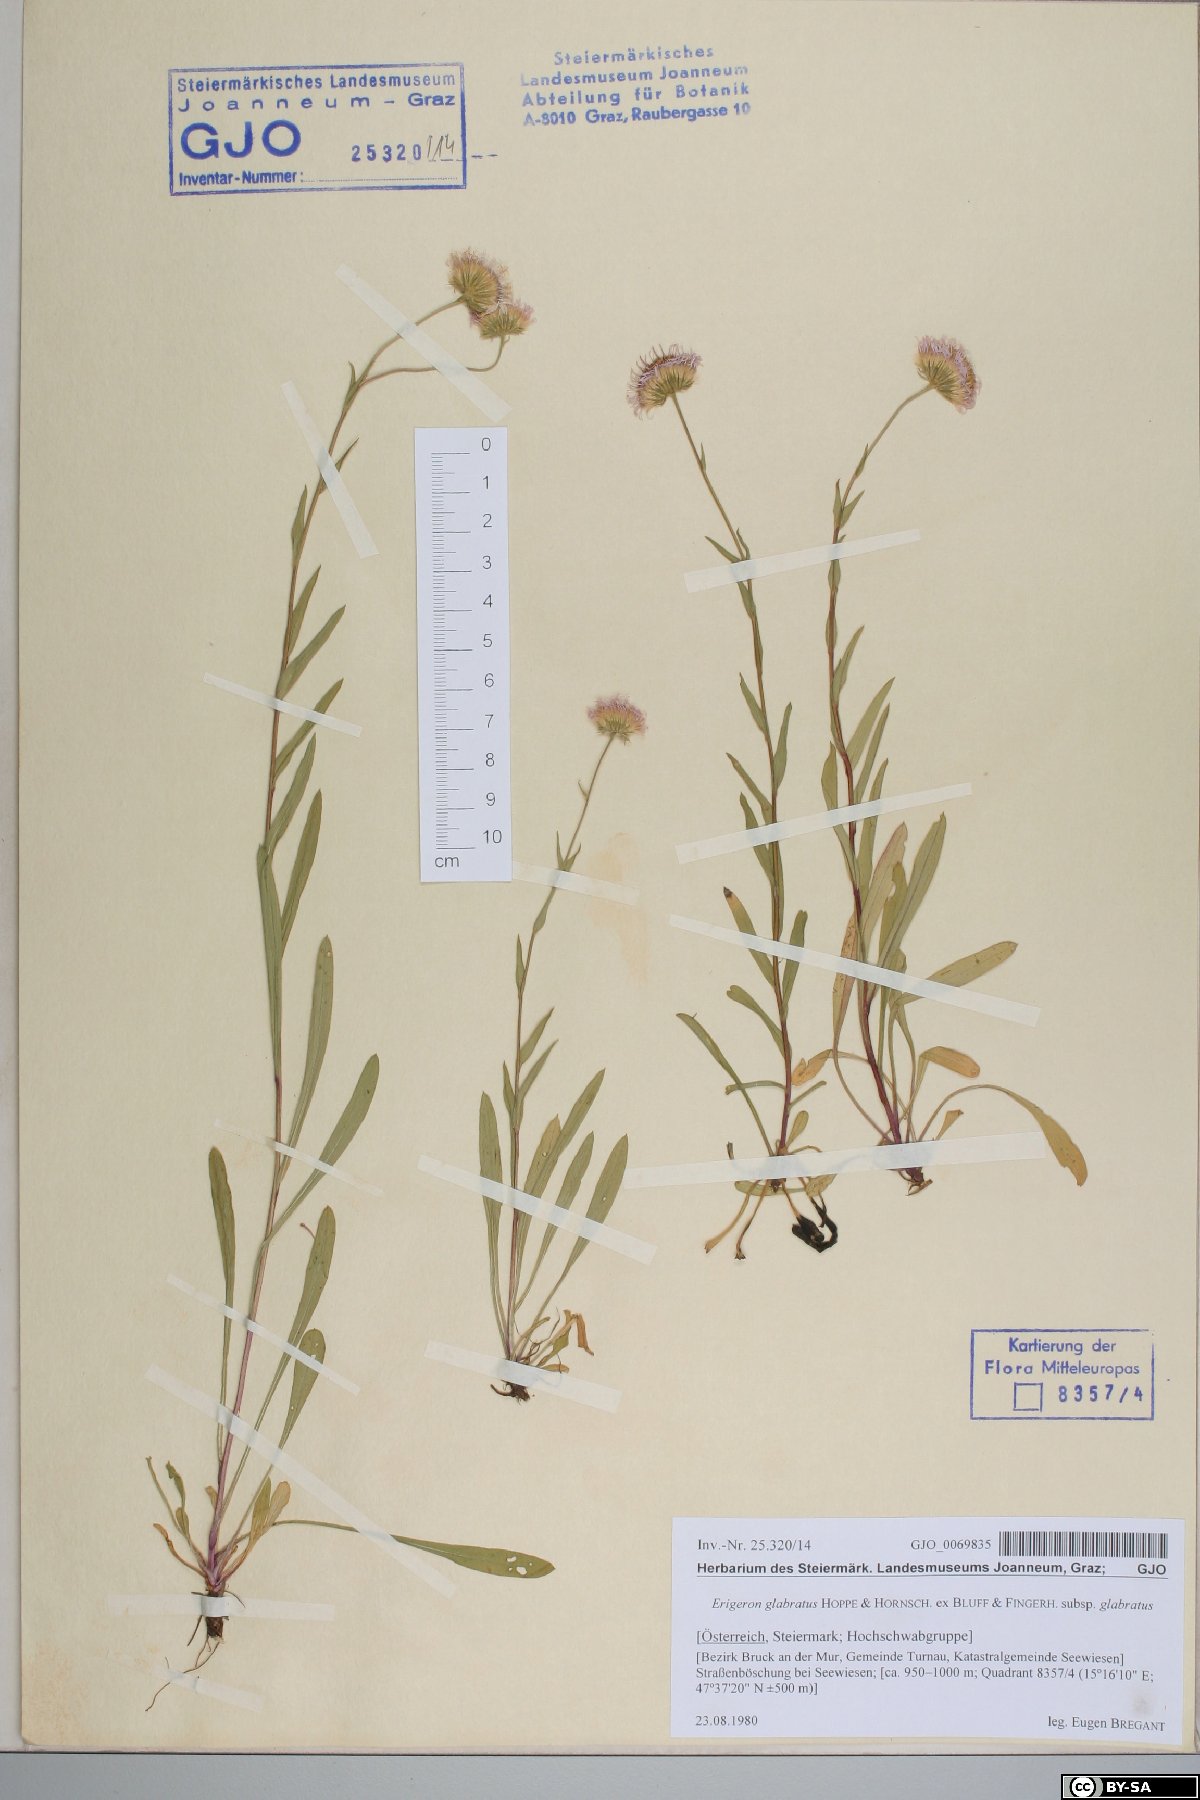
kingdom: Plantae
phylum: Tracheophyta
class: Magnoliopsida
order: Asterales
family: Asteraceae
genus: Erigeron
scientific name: Erigeron glabratus
